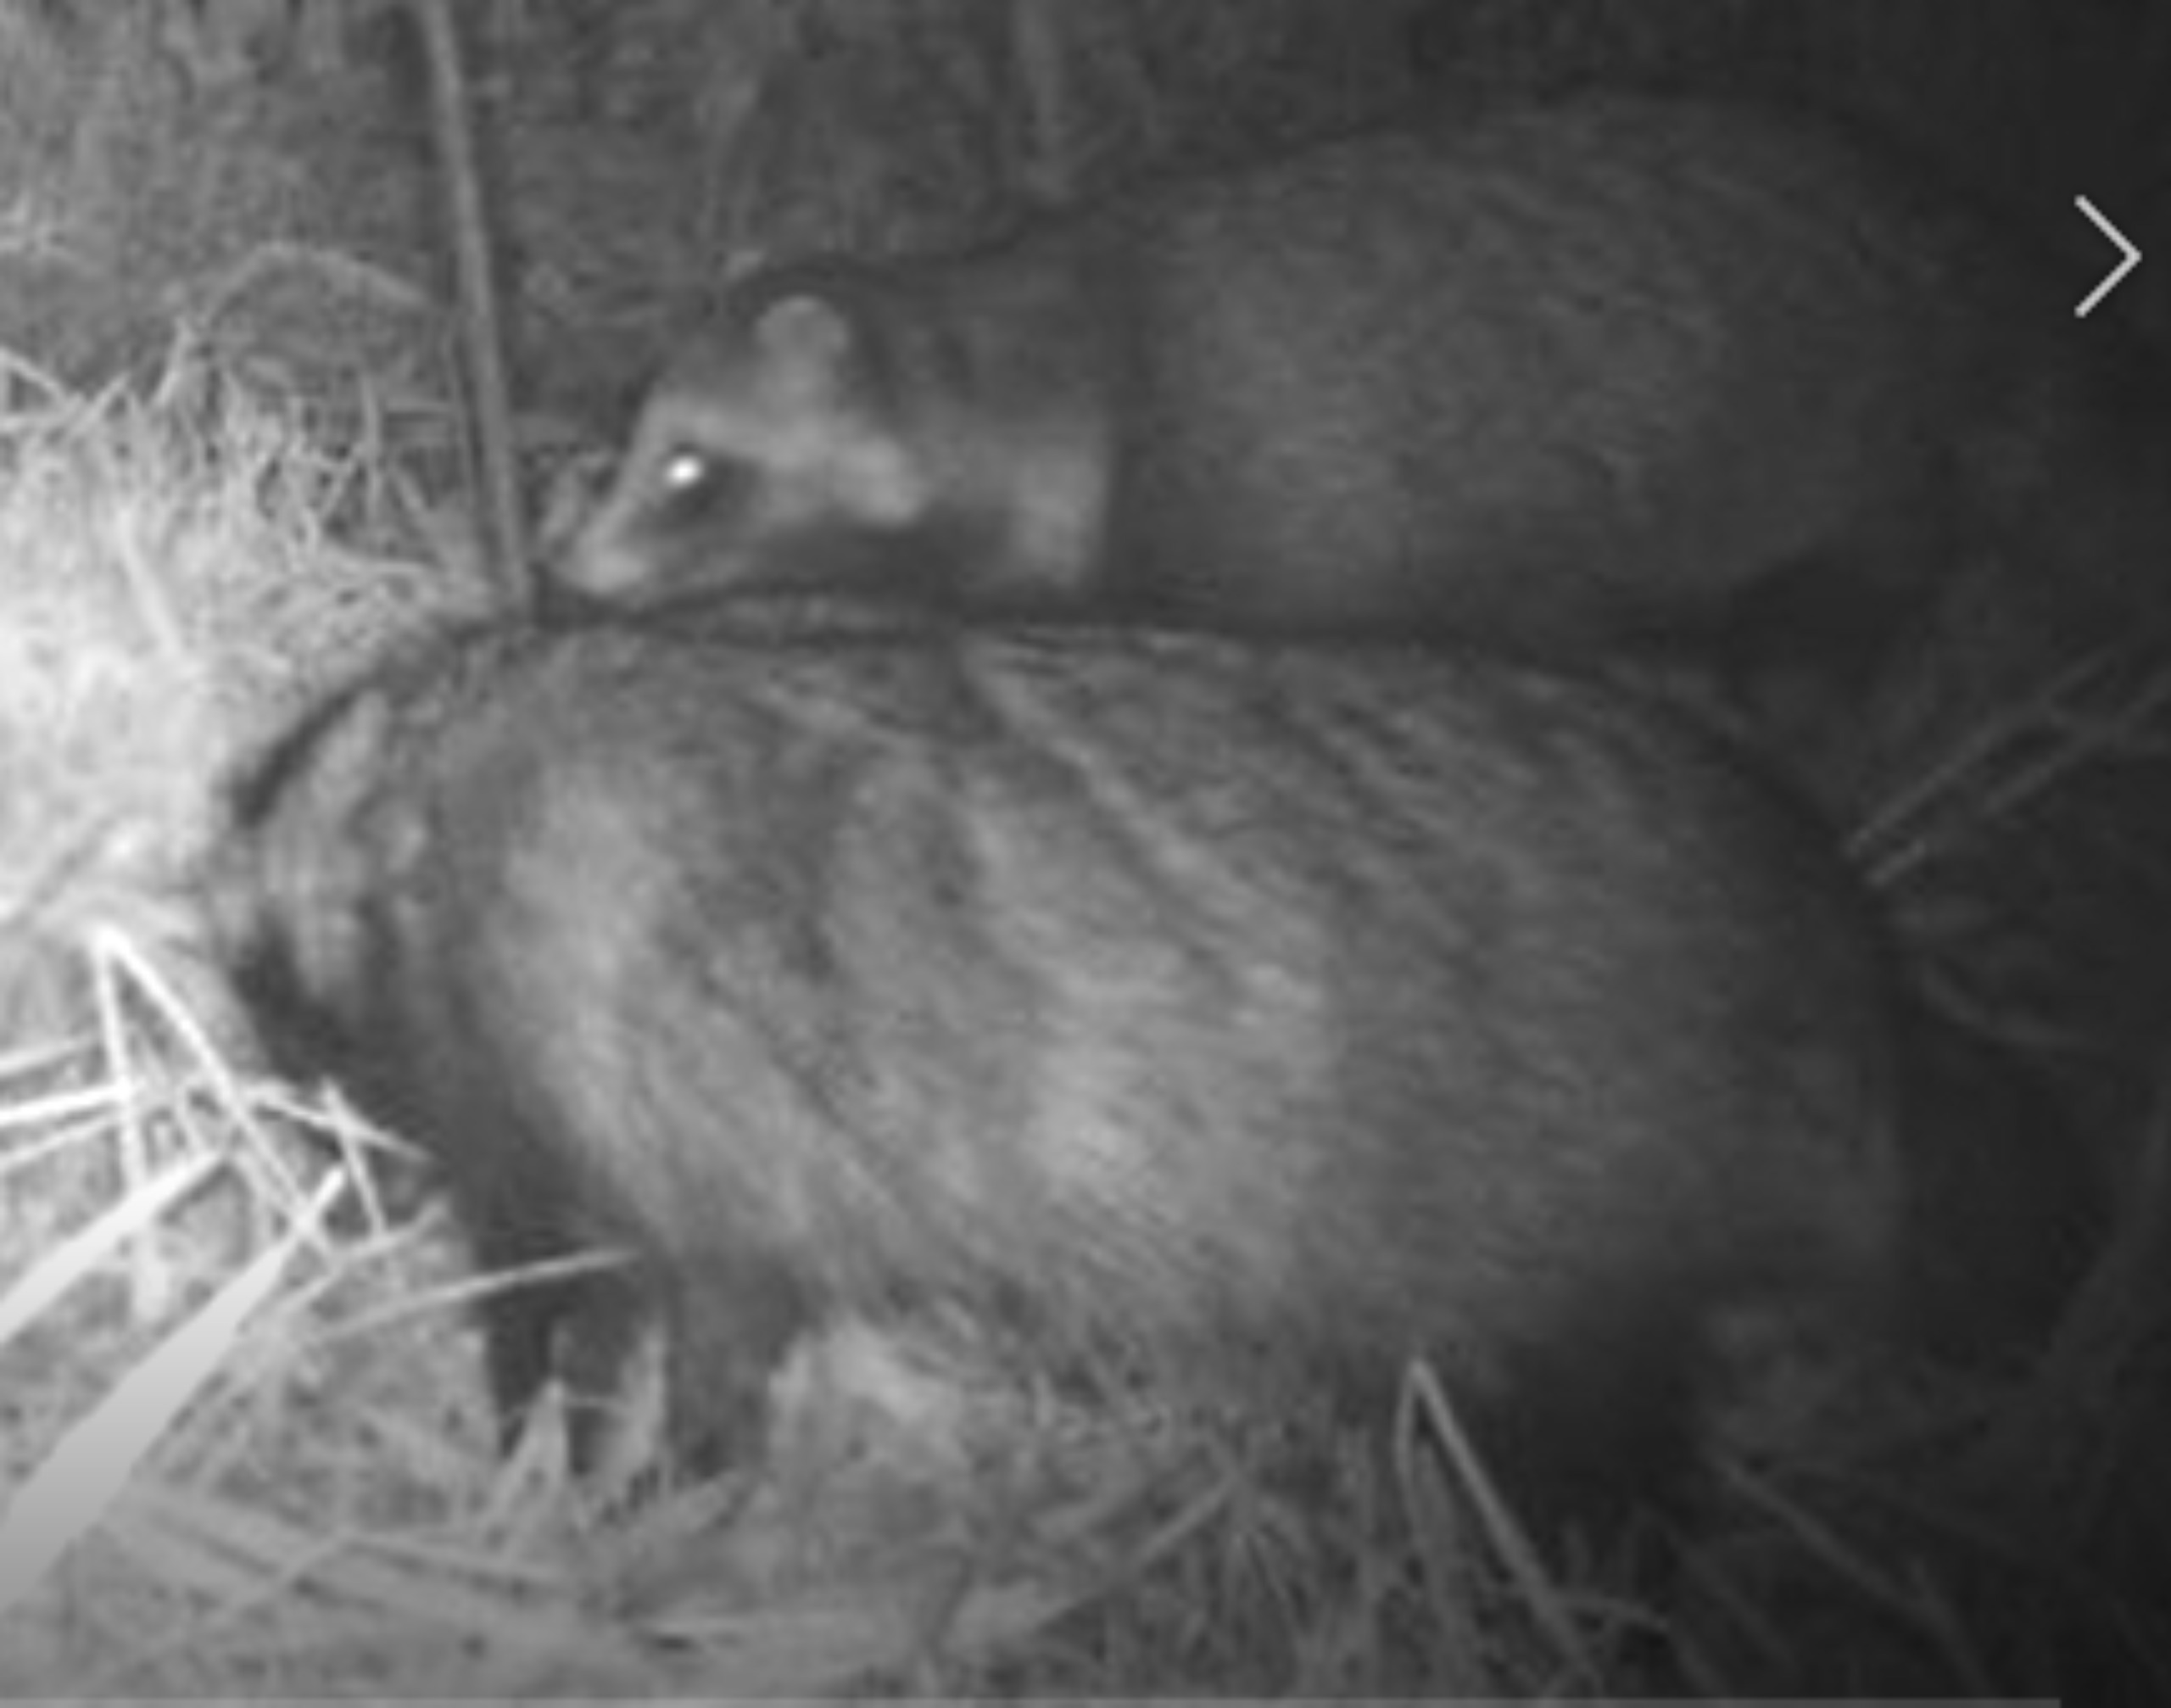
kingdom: Animalia
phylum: Chordata
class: Mammalia
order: Carnivora
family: Canidae
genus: Nyctereutes
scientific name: Nyctereutes procyonoides
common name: Mårhund
